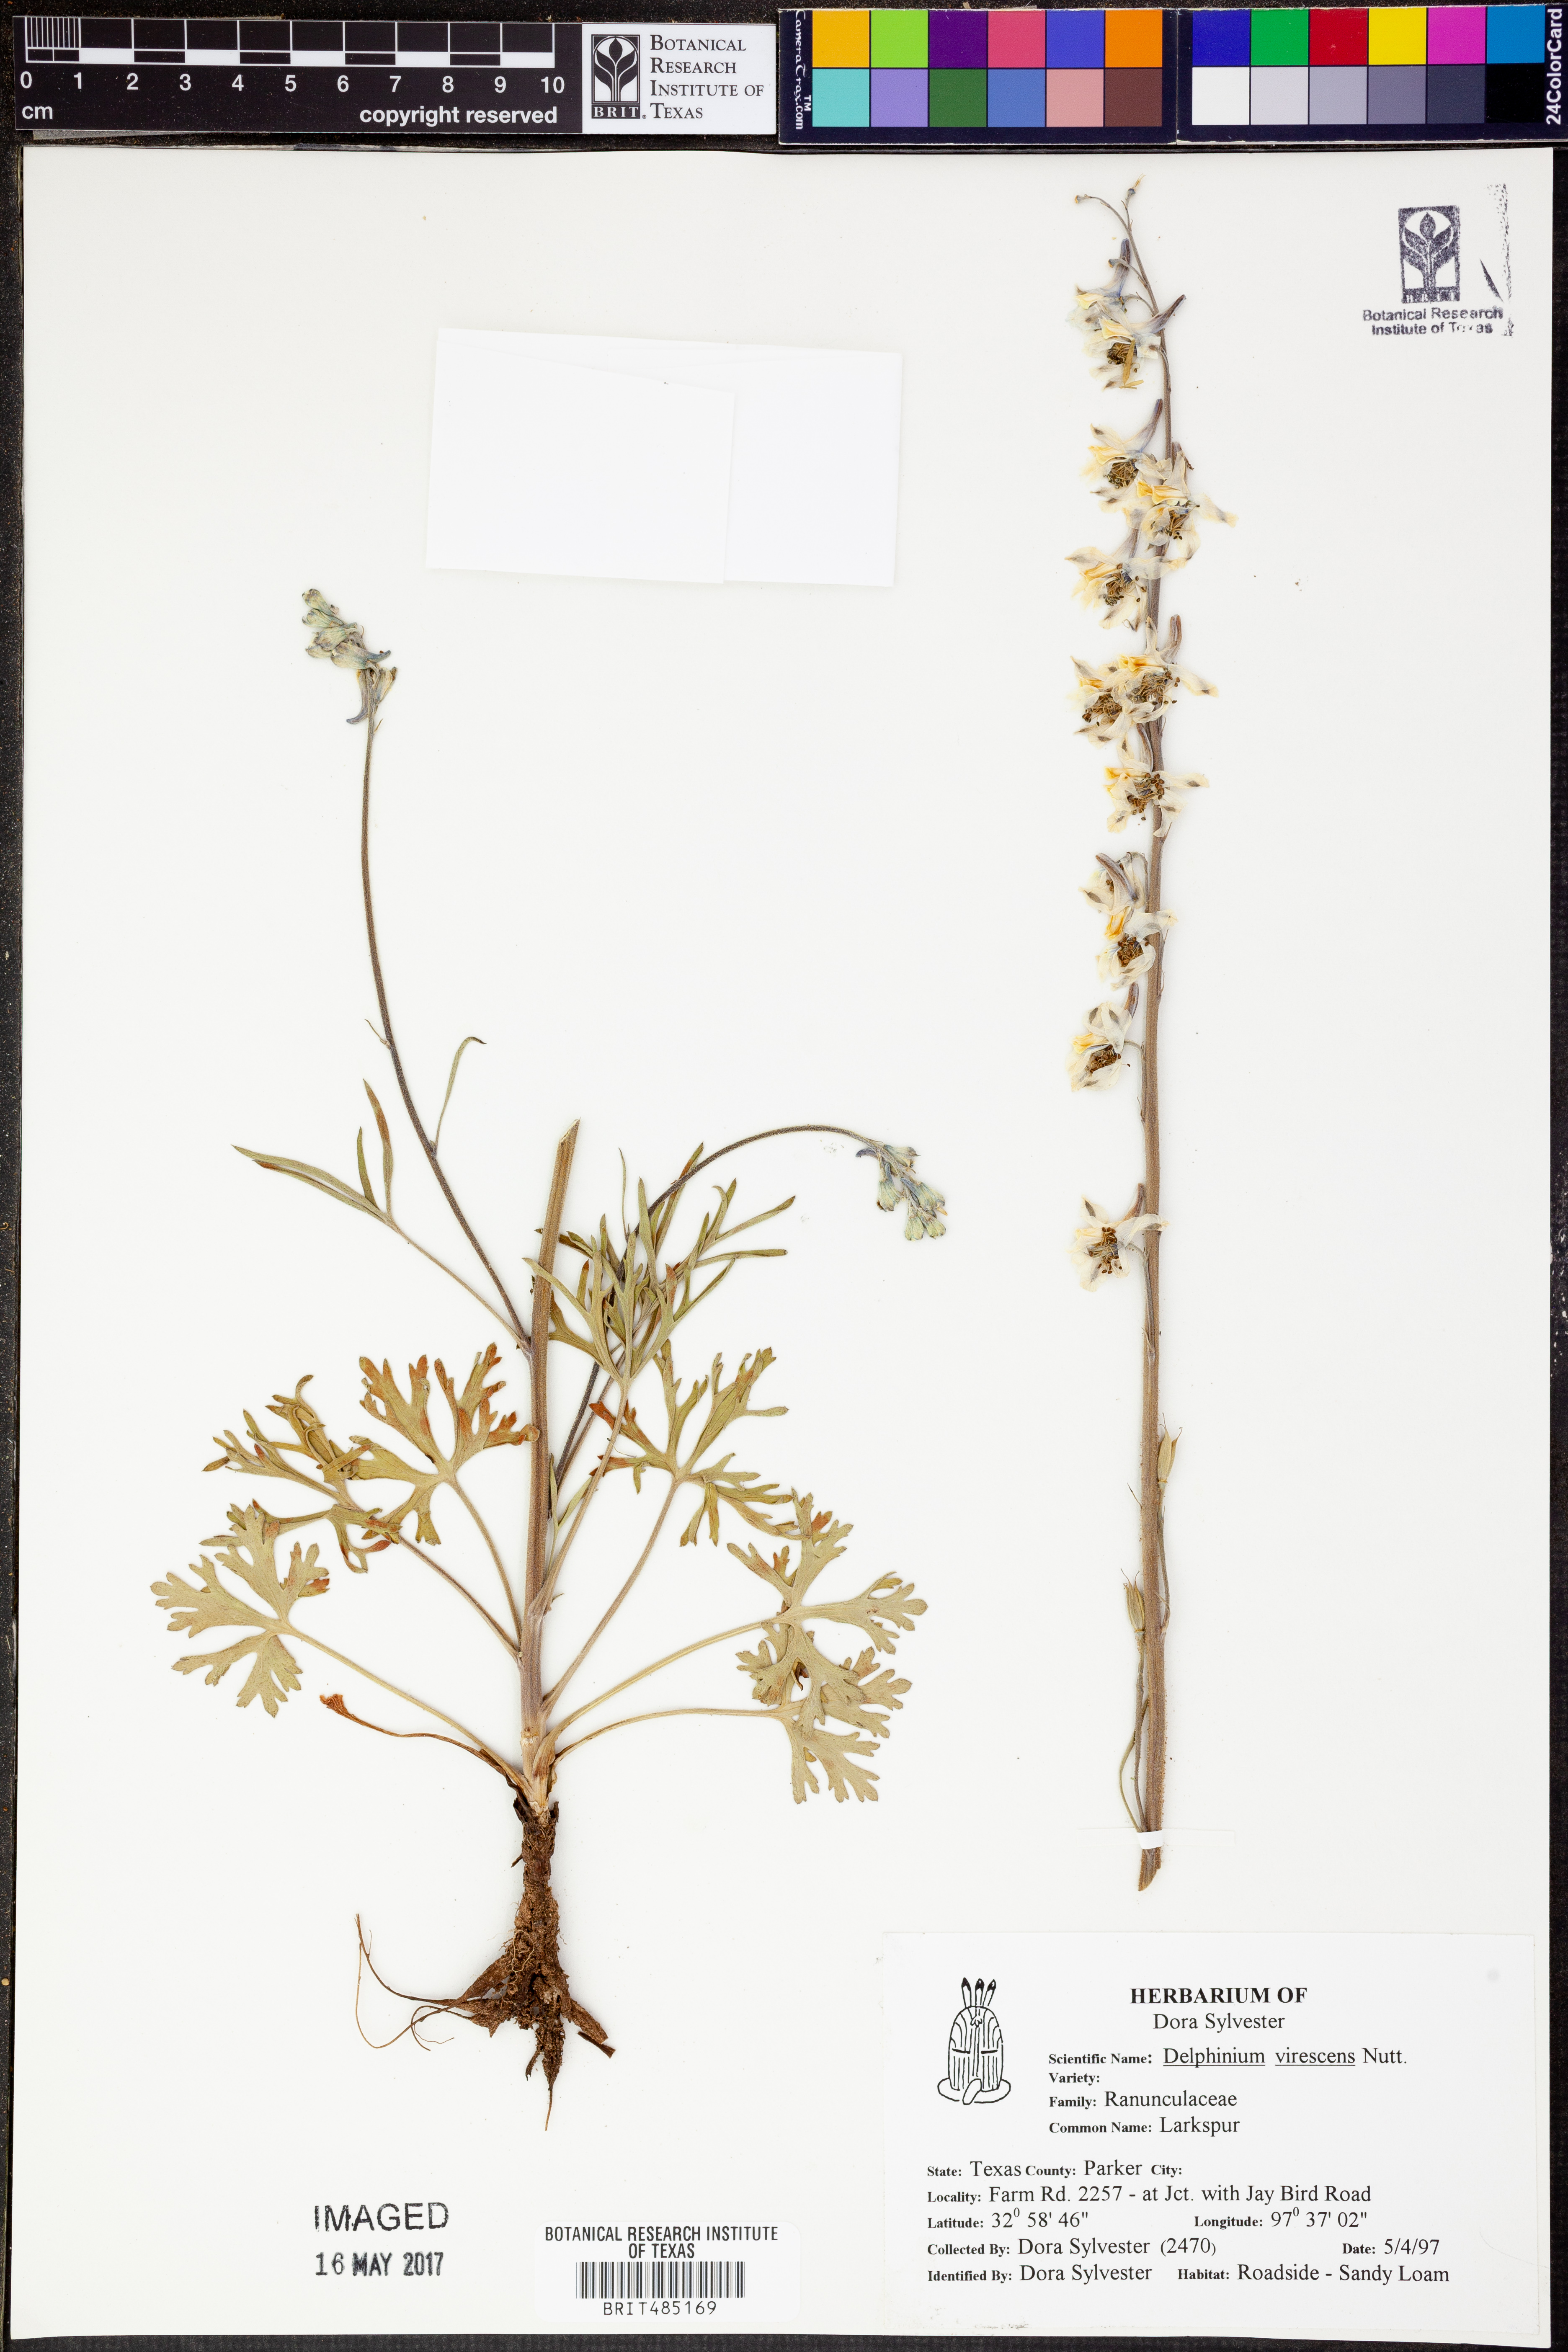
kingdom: Plantae
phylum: Tracheophyta
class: Magnoliopsida
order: Ranunculales
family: Ranunculaceae
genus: Delphinium
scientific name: Delphinium carolinianum
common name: Carolina larkspur
